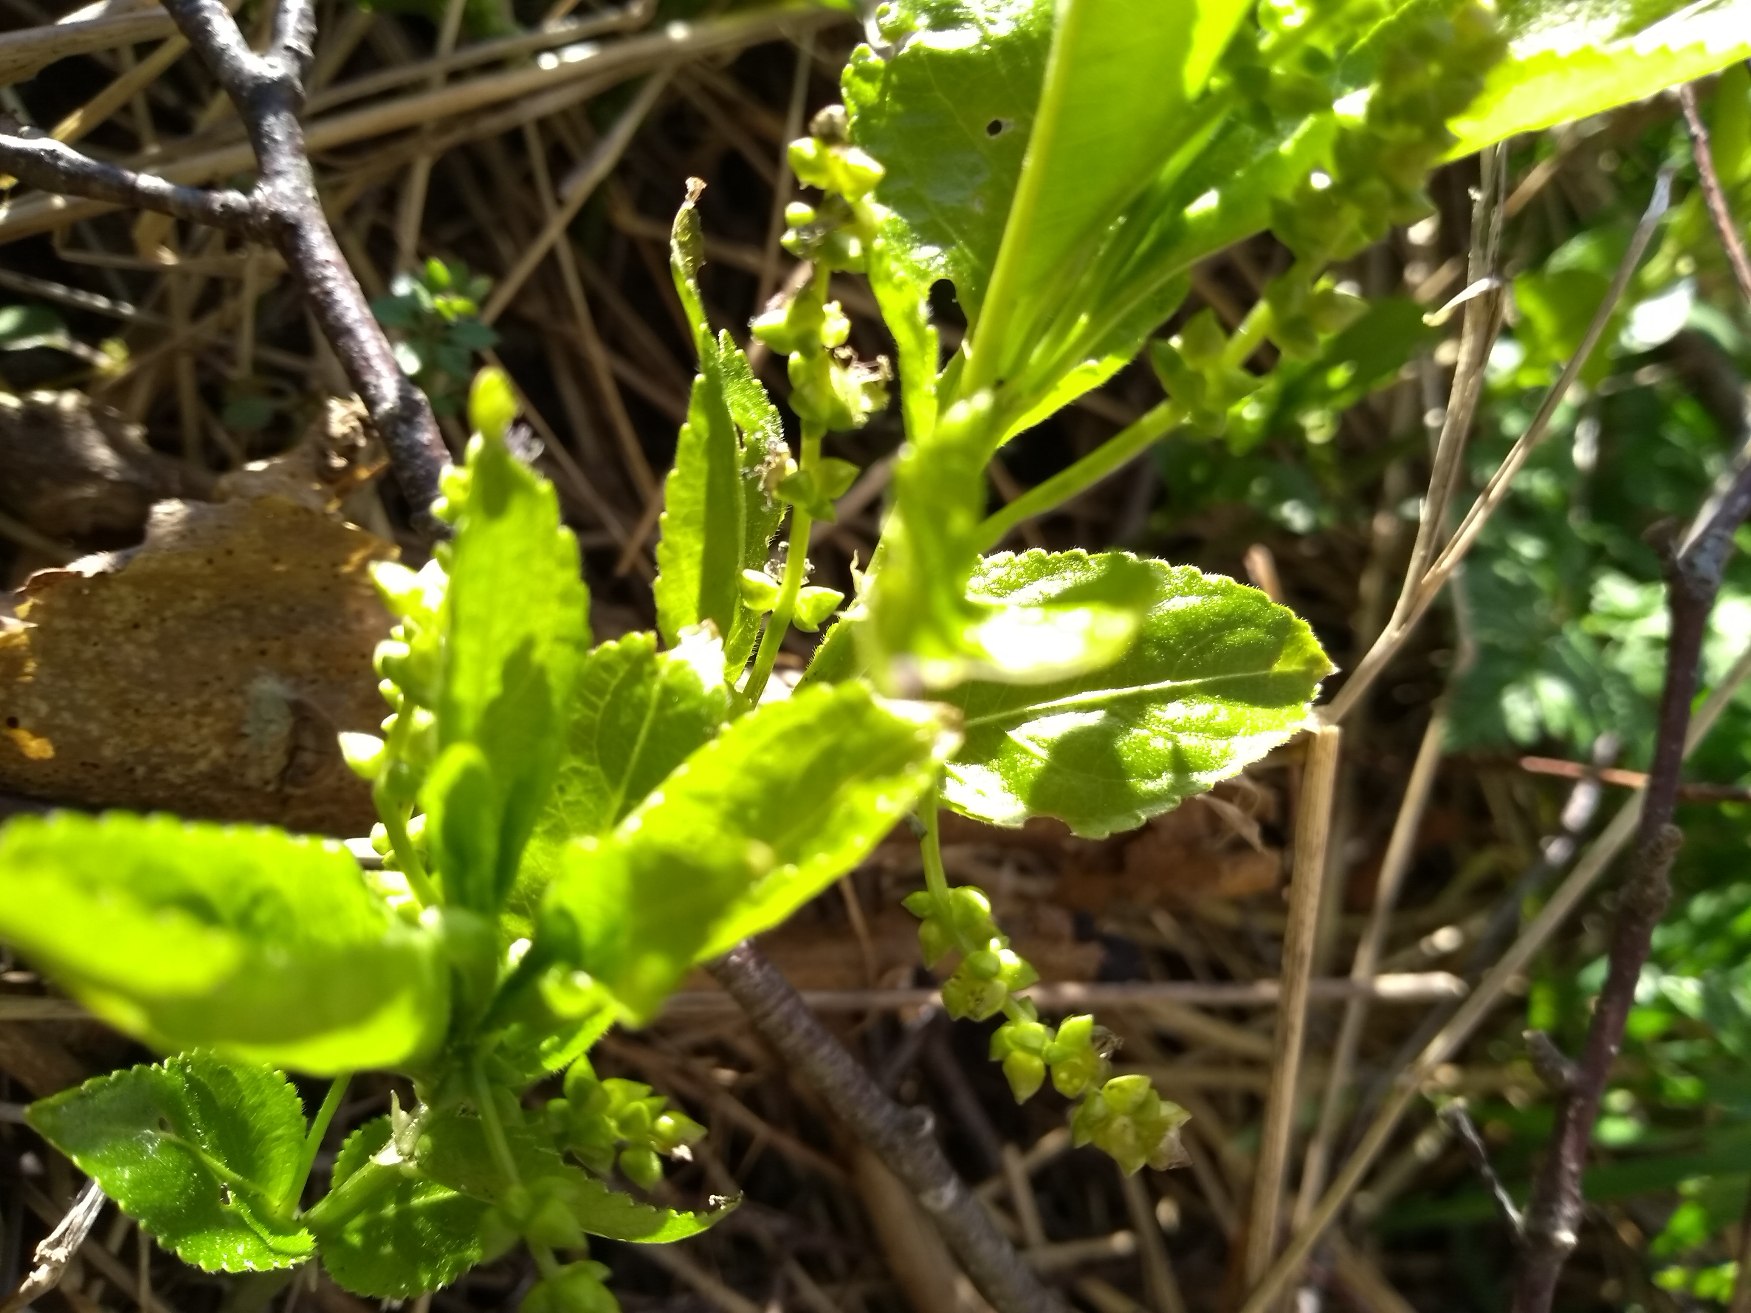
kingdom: Plantae
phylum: Tracheophyta
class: Magnoliopsida
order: Malpighiales
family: Euphorbiaceae
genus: Mercurialis
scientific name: Mercurialis perennis
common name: Almindelig bingelurt
